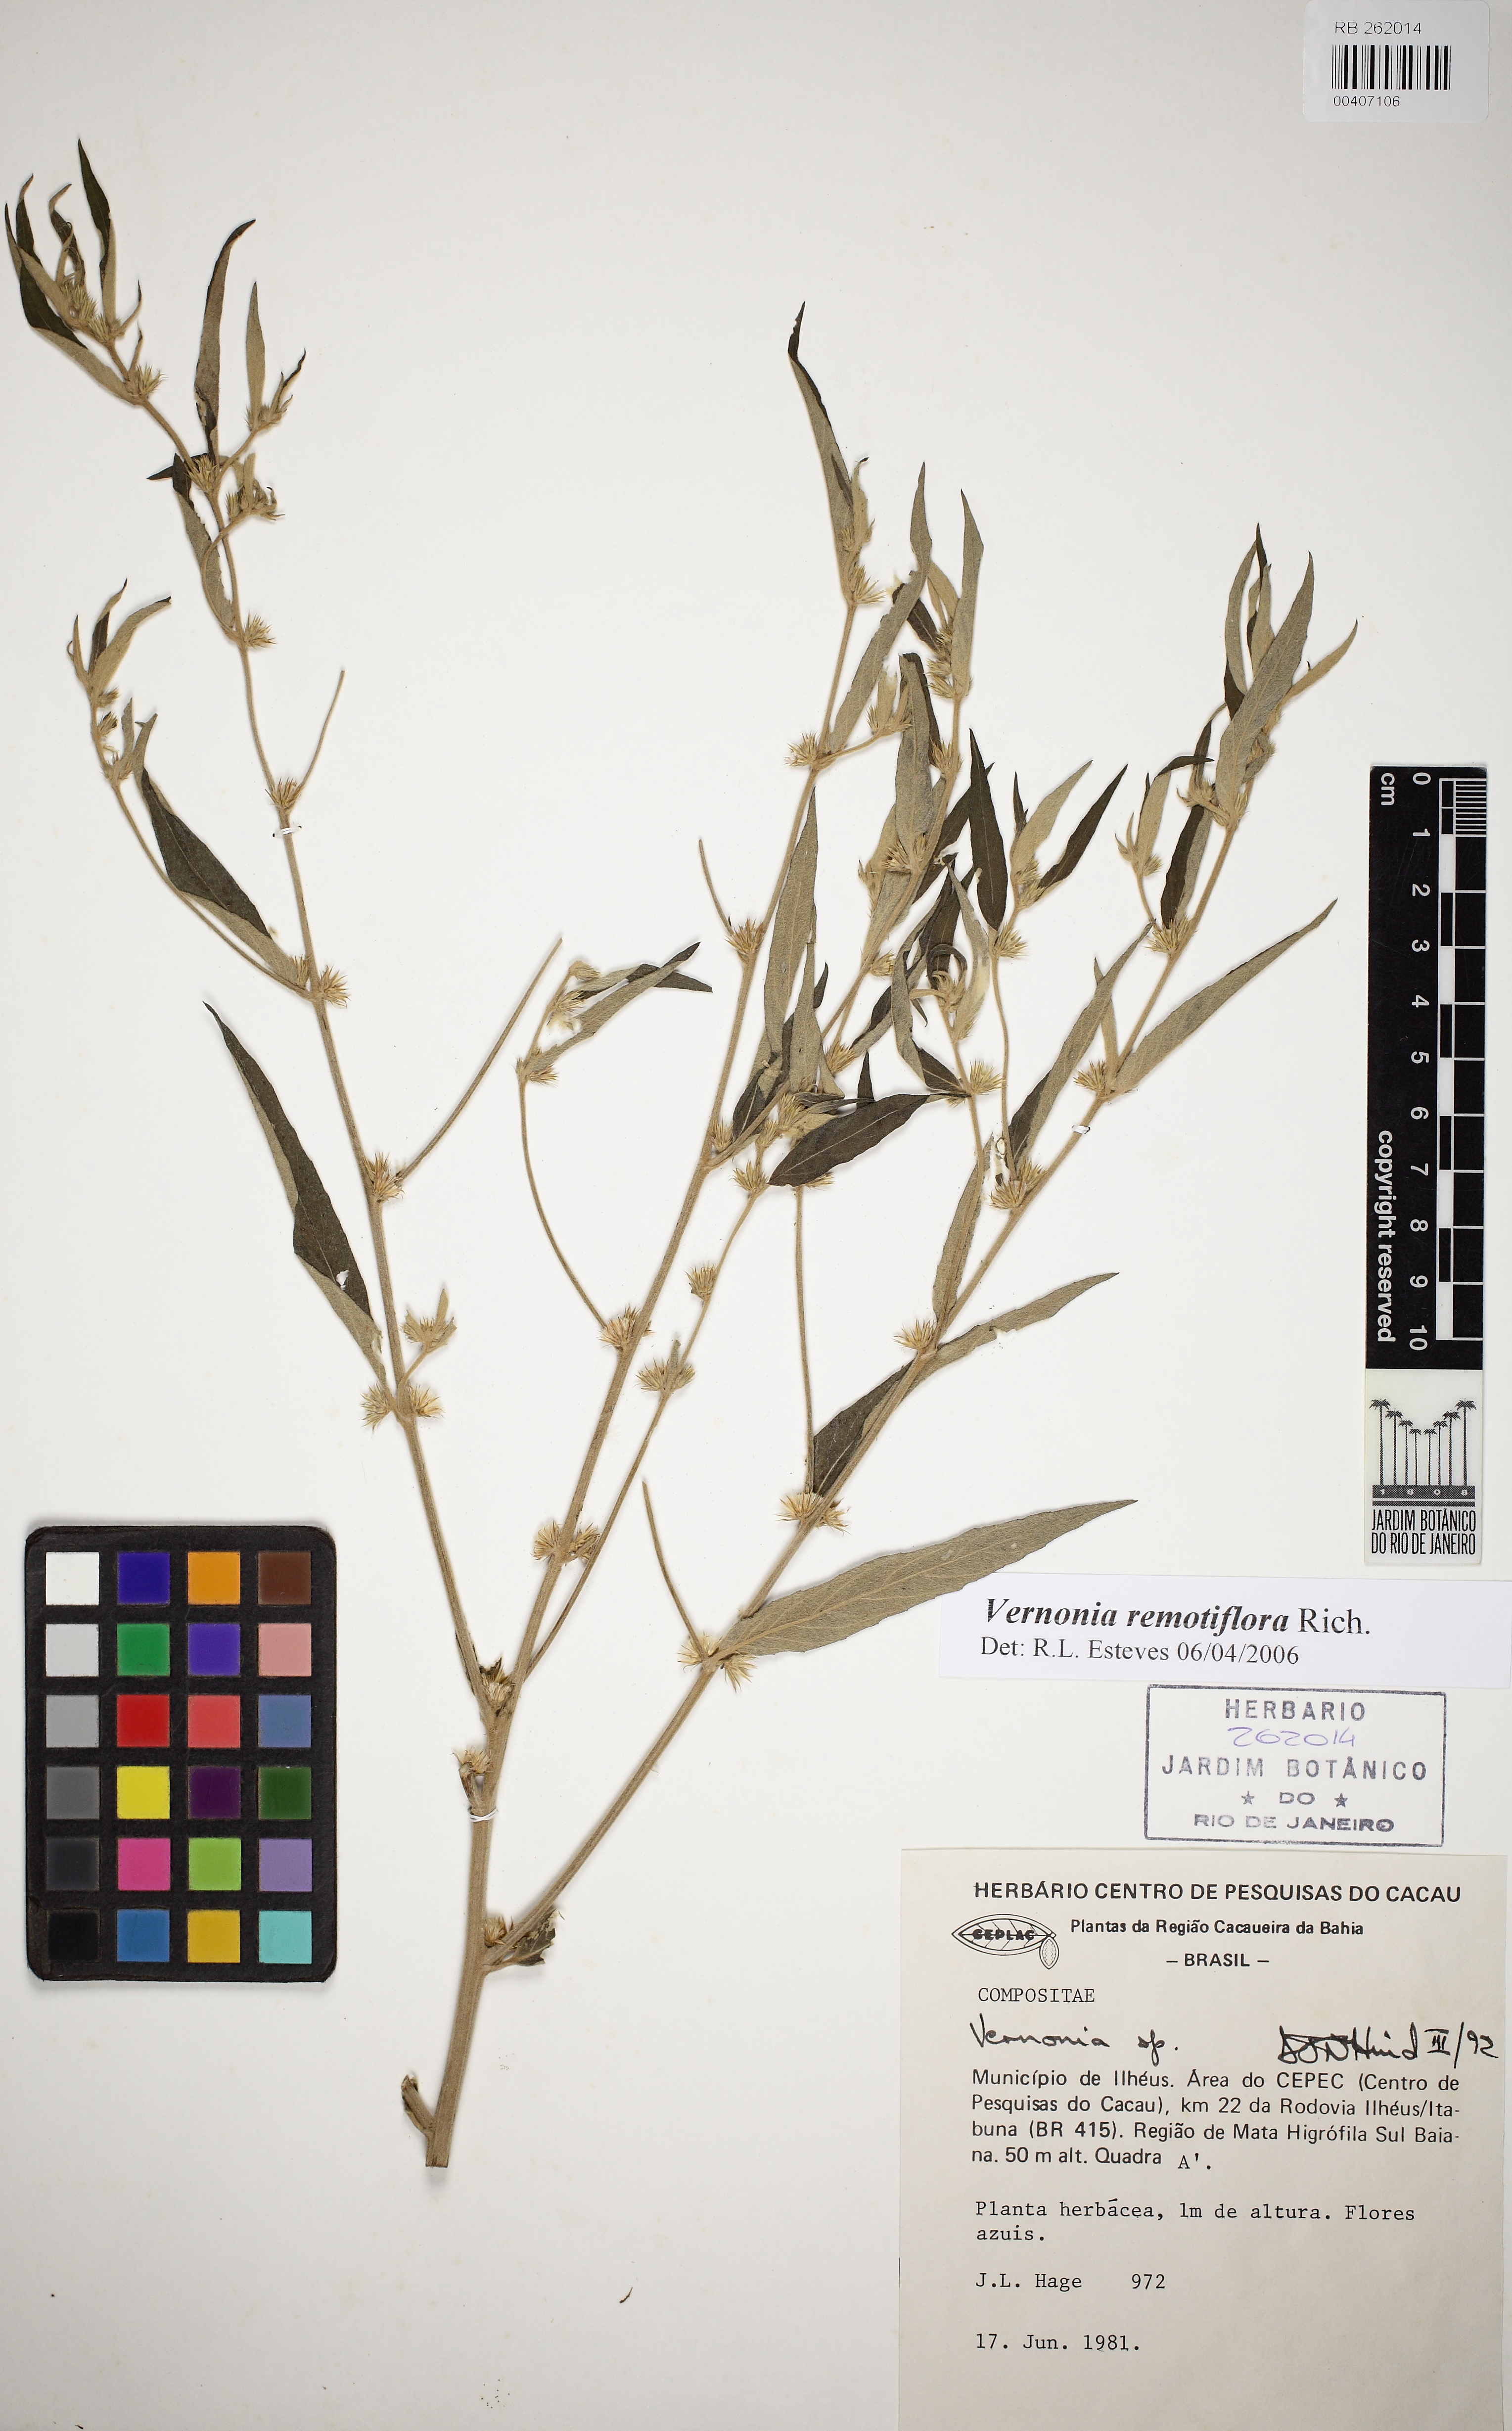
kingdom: Plantae
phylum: Tracheophyta
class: Magnoliopsida
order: Asterales
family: Asteraceae
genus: Lepidaploa
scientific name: Lepidaploa remotiflora
